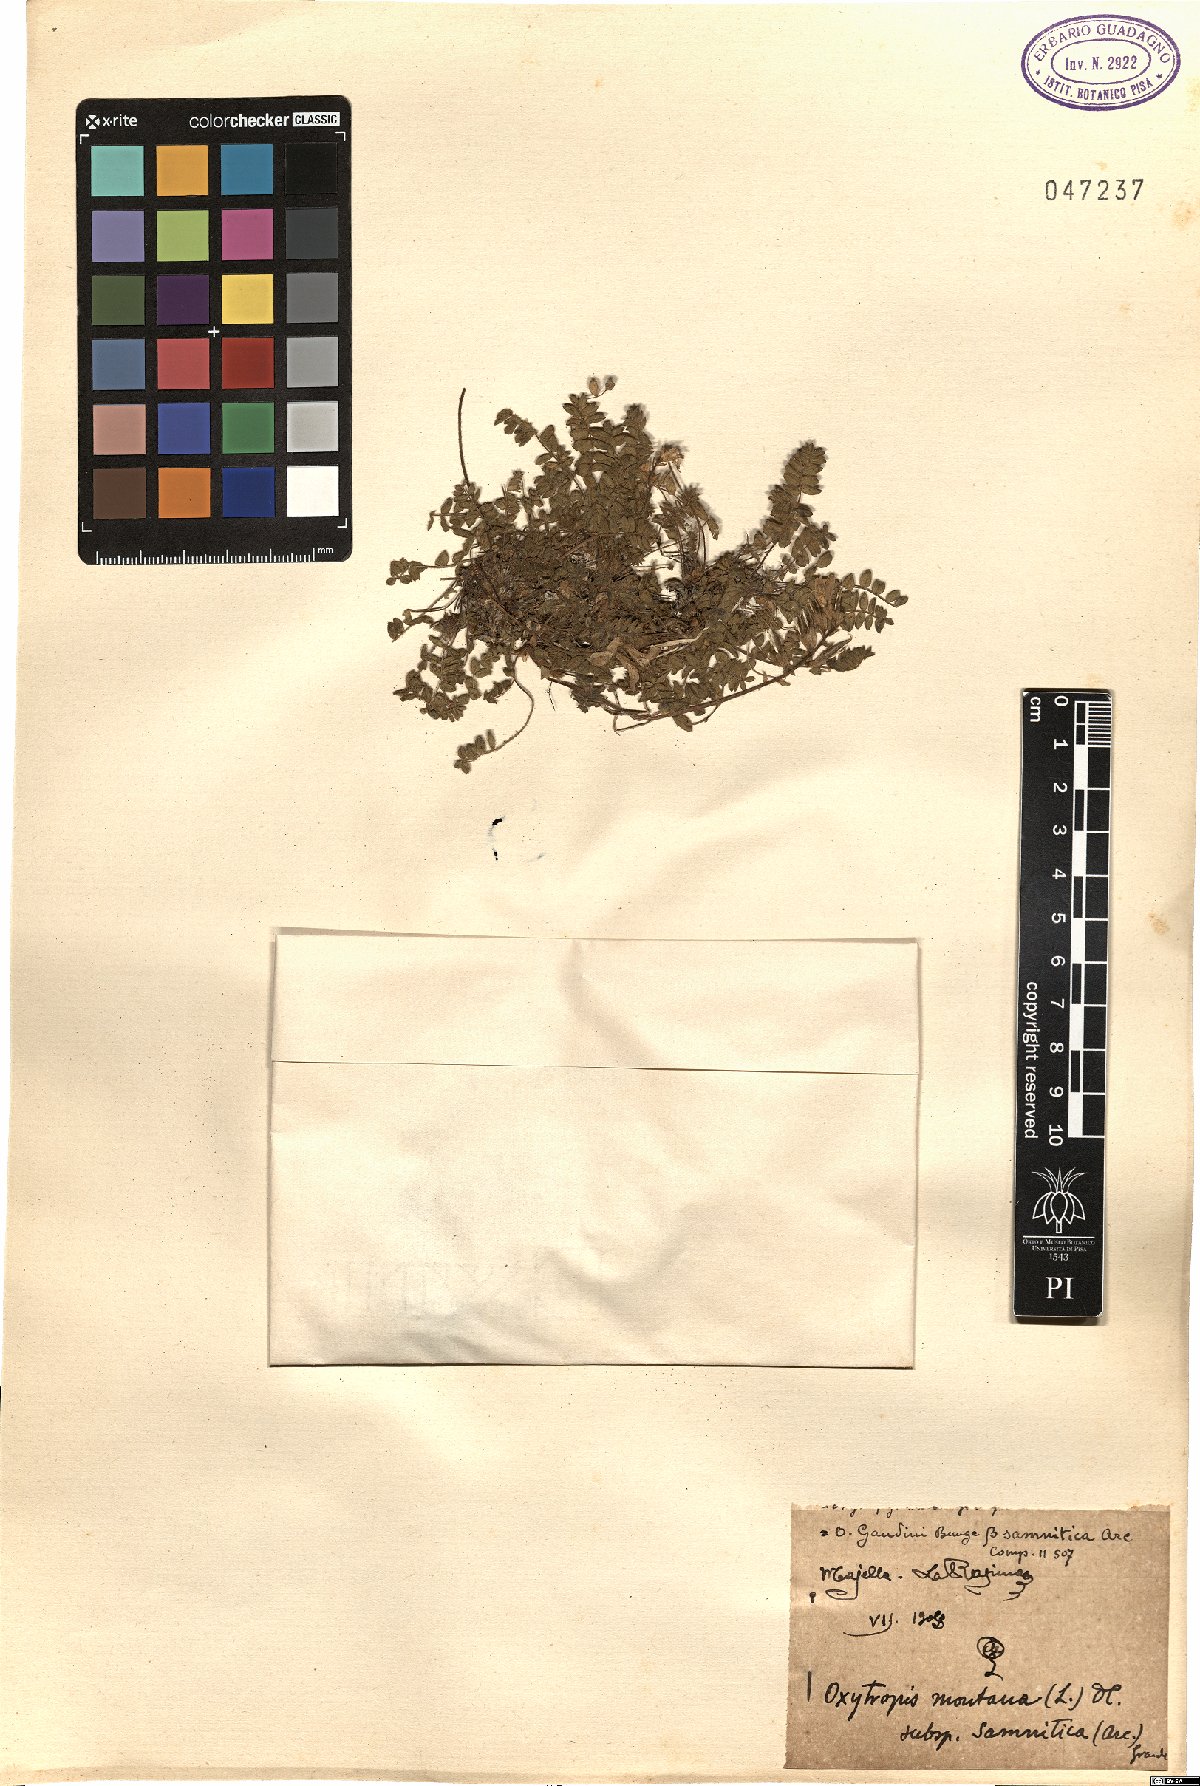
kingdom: Plantae
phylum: Tracheophyta
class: Magnoliopsida
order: Fabales
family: Fabaceae
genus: Oxytropis
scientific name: Oxytropis neglecta
